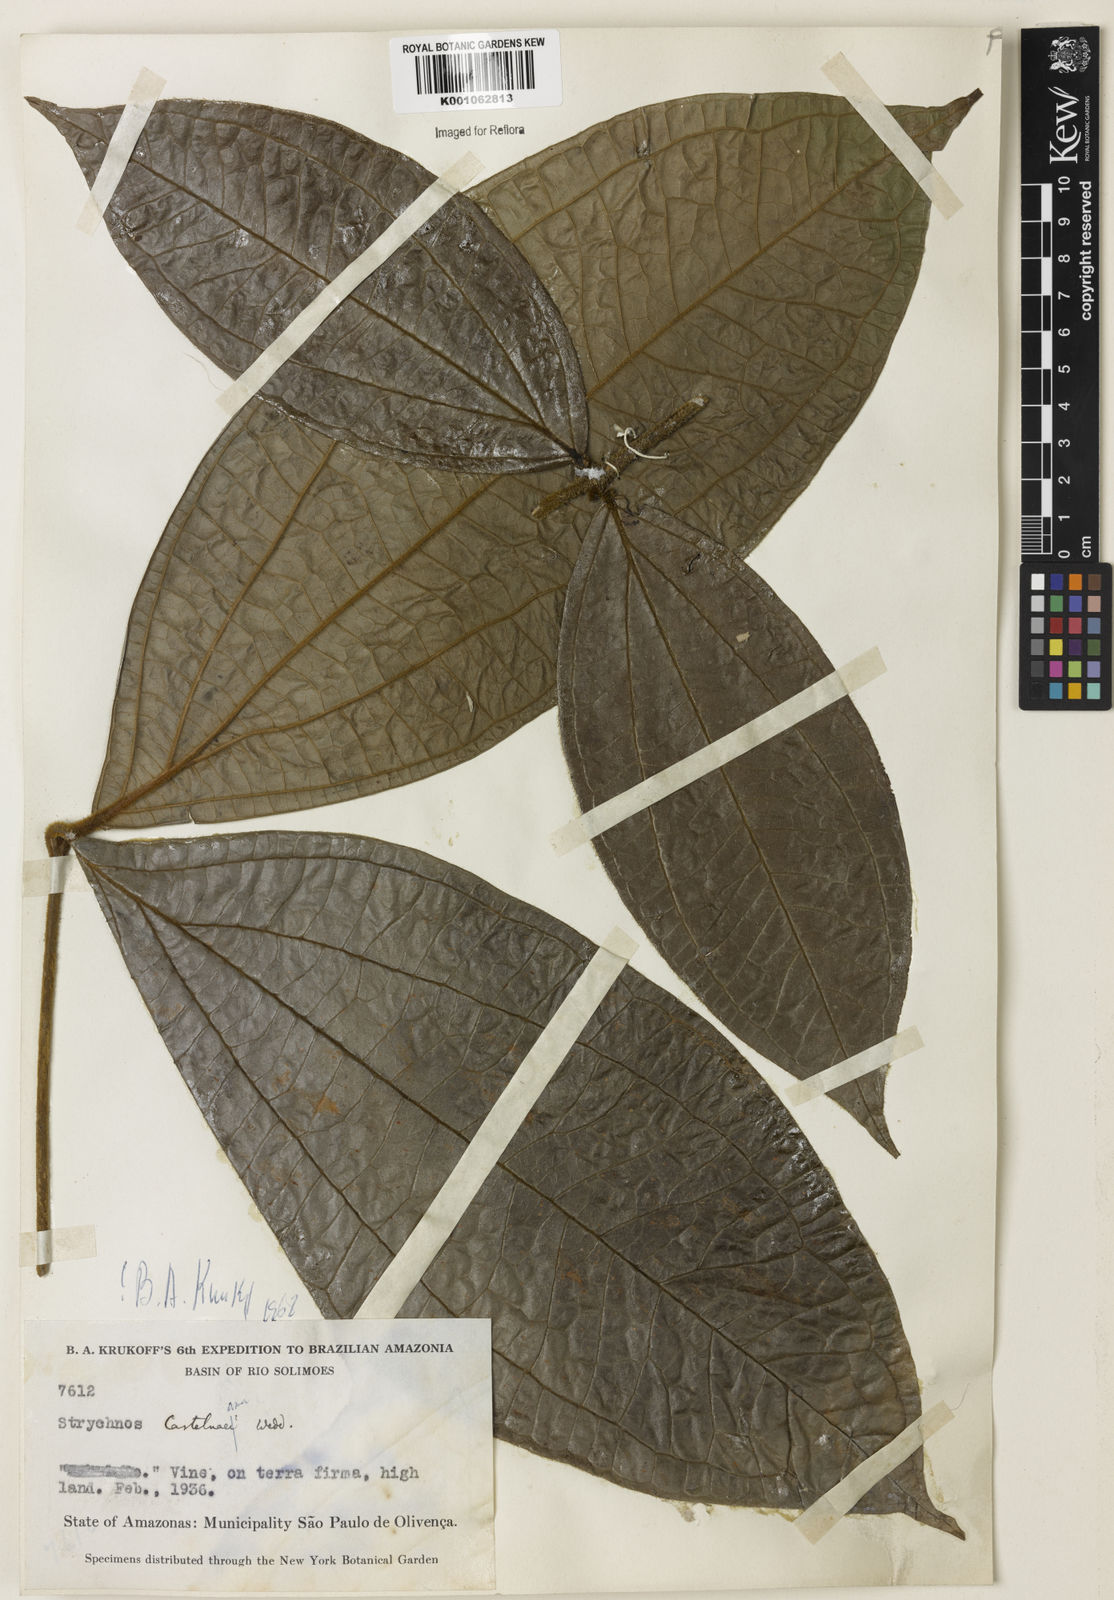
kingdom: Plantae
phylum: Tracheophyta
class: Magnoliopsida
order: Gentianales
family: Loganiaceae
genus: Strychnos
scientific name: Strychnos
